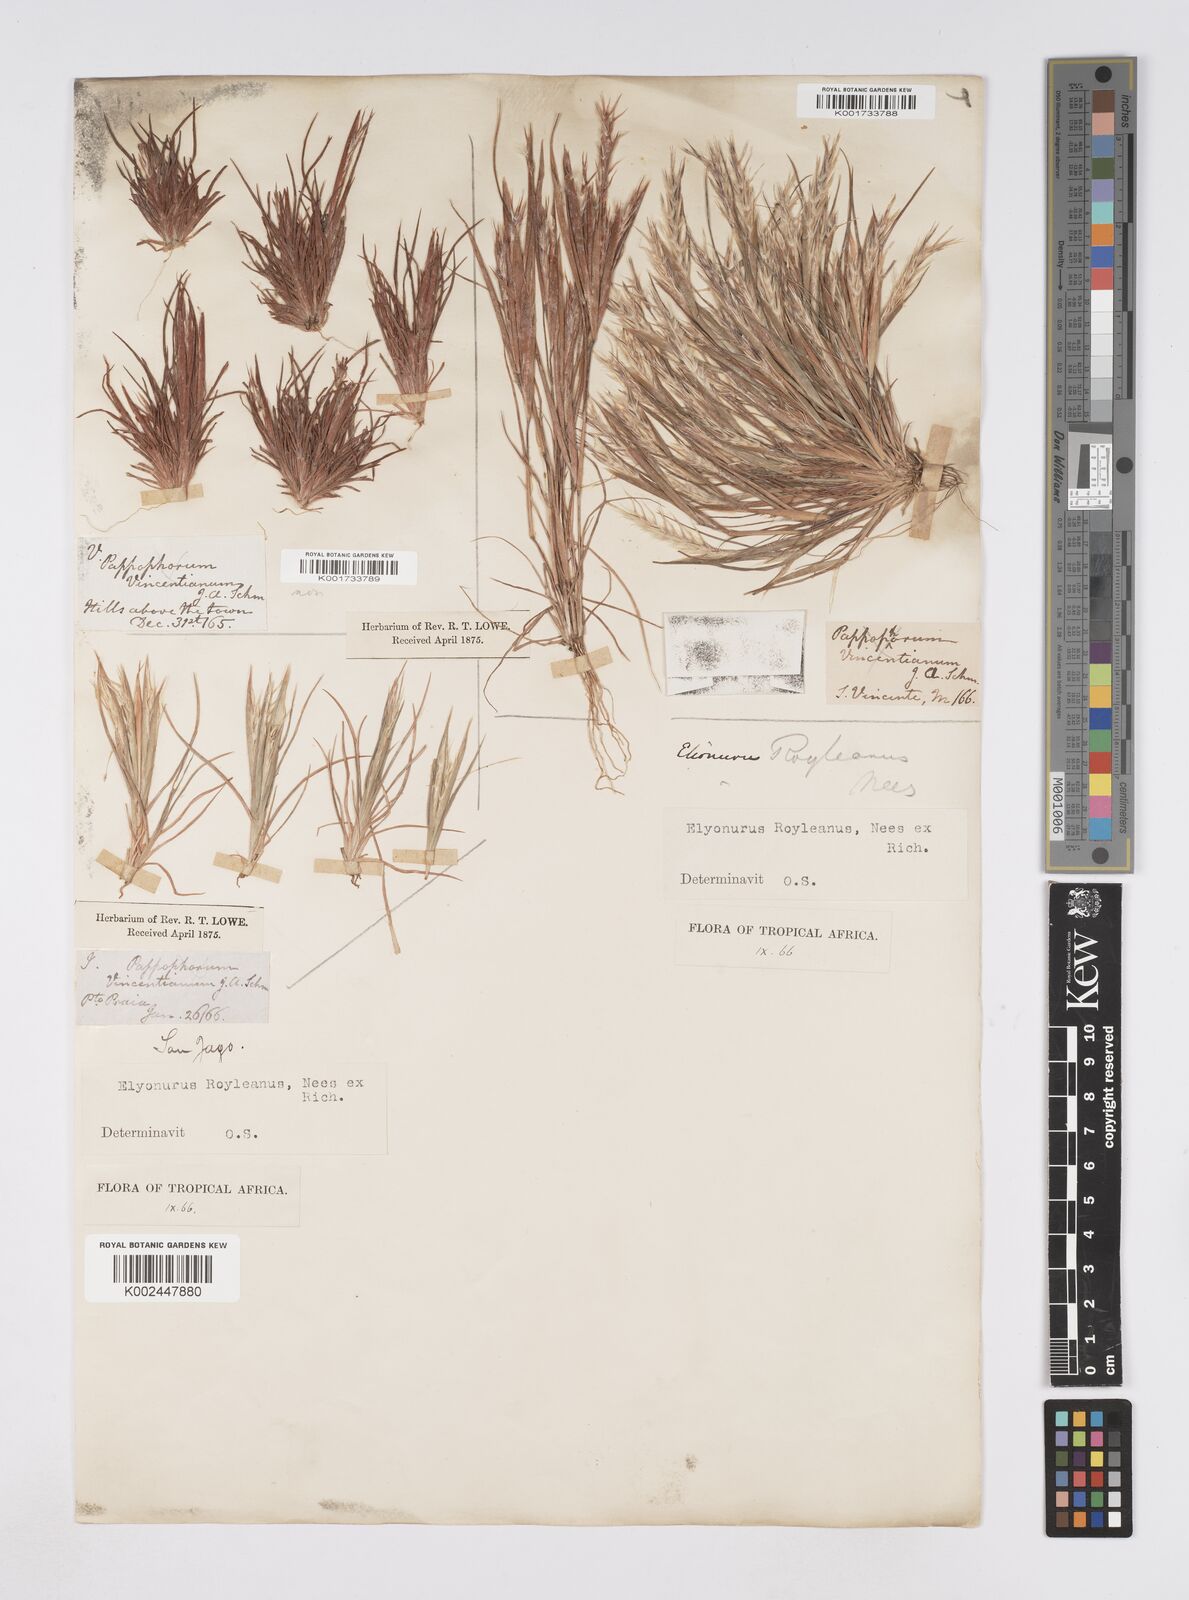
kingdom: Plantae
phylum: Tracheophyta
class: Liliopsida
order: Poales
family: Poaceae
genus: Elionurus
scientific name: Elionurus royleanus
